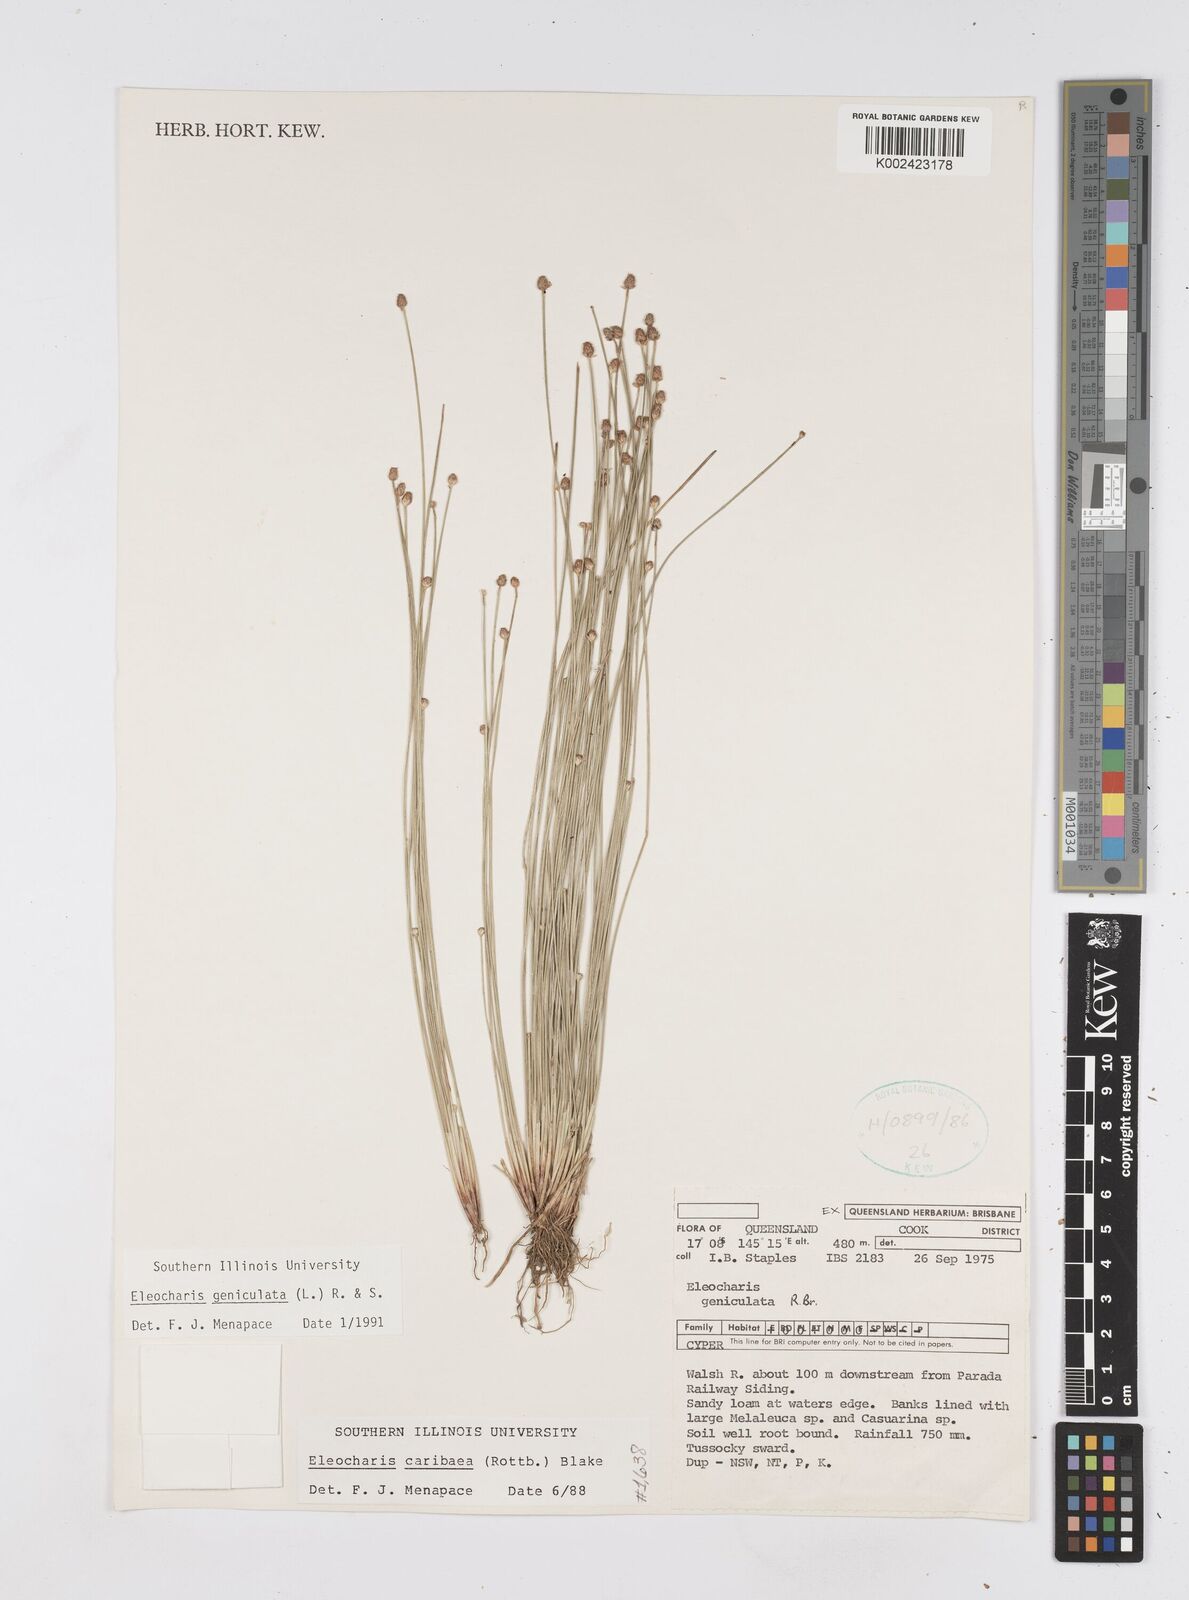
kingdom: Plantae
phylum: Tracheophyta
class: Liliopsida
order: Poales
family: Cyperaceae
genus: Eleocharis
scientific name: Eleocharis geniculata
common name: Canada spikesedge
